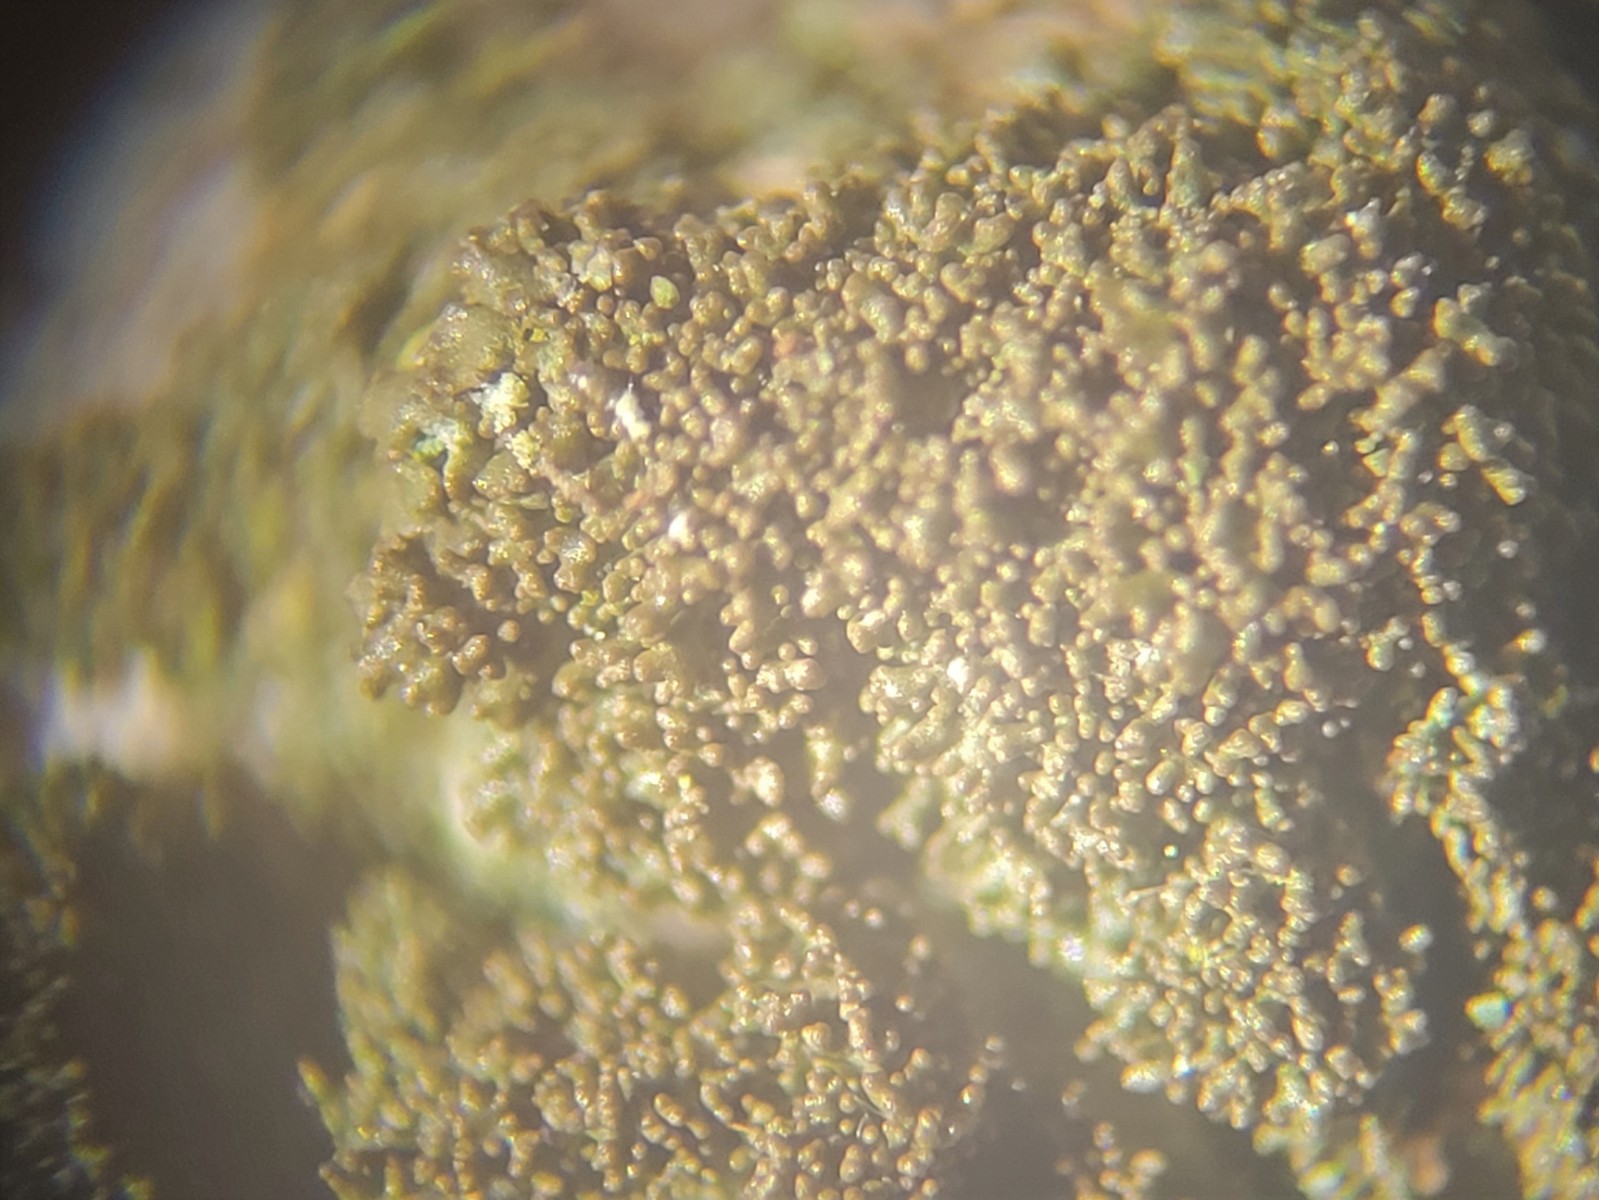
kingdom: Fungi
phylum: Ascomycota
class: Lecanoromycetes
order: Lecanorales
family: Parmeliaceae
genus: Melanohalea
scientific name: Melanohalea exasperatula
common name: kølle-skållav
